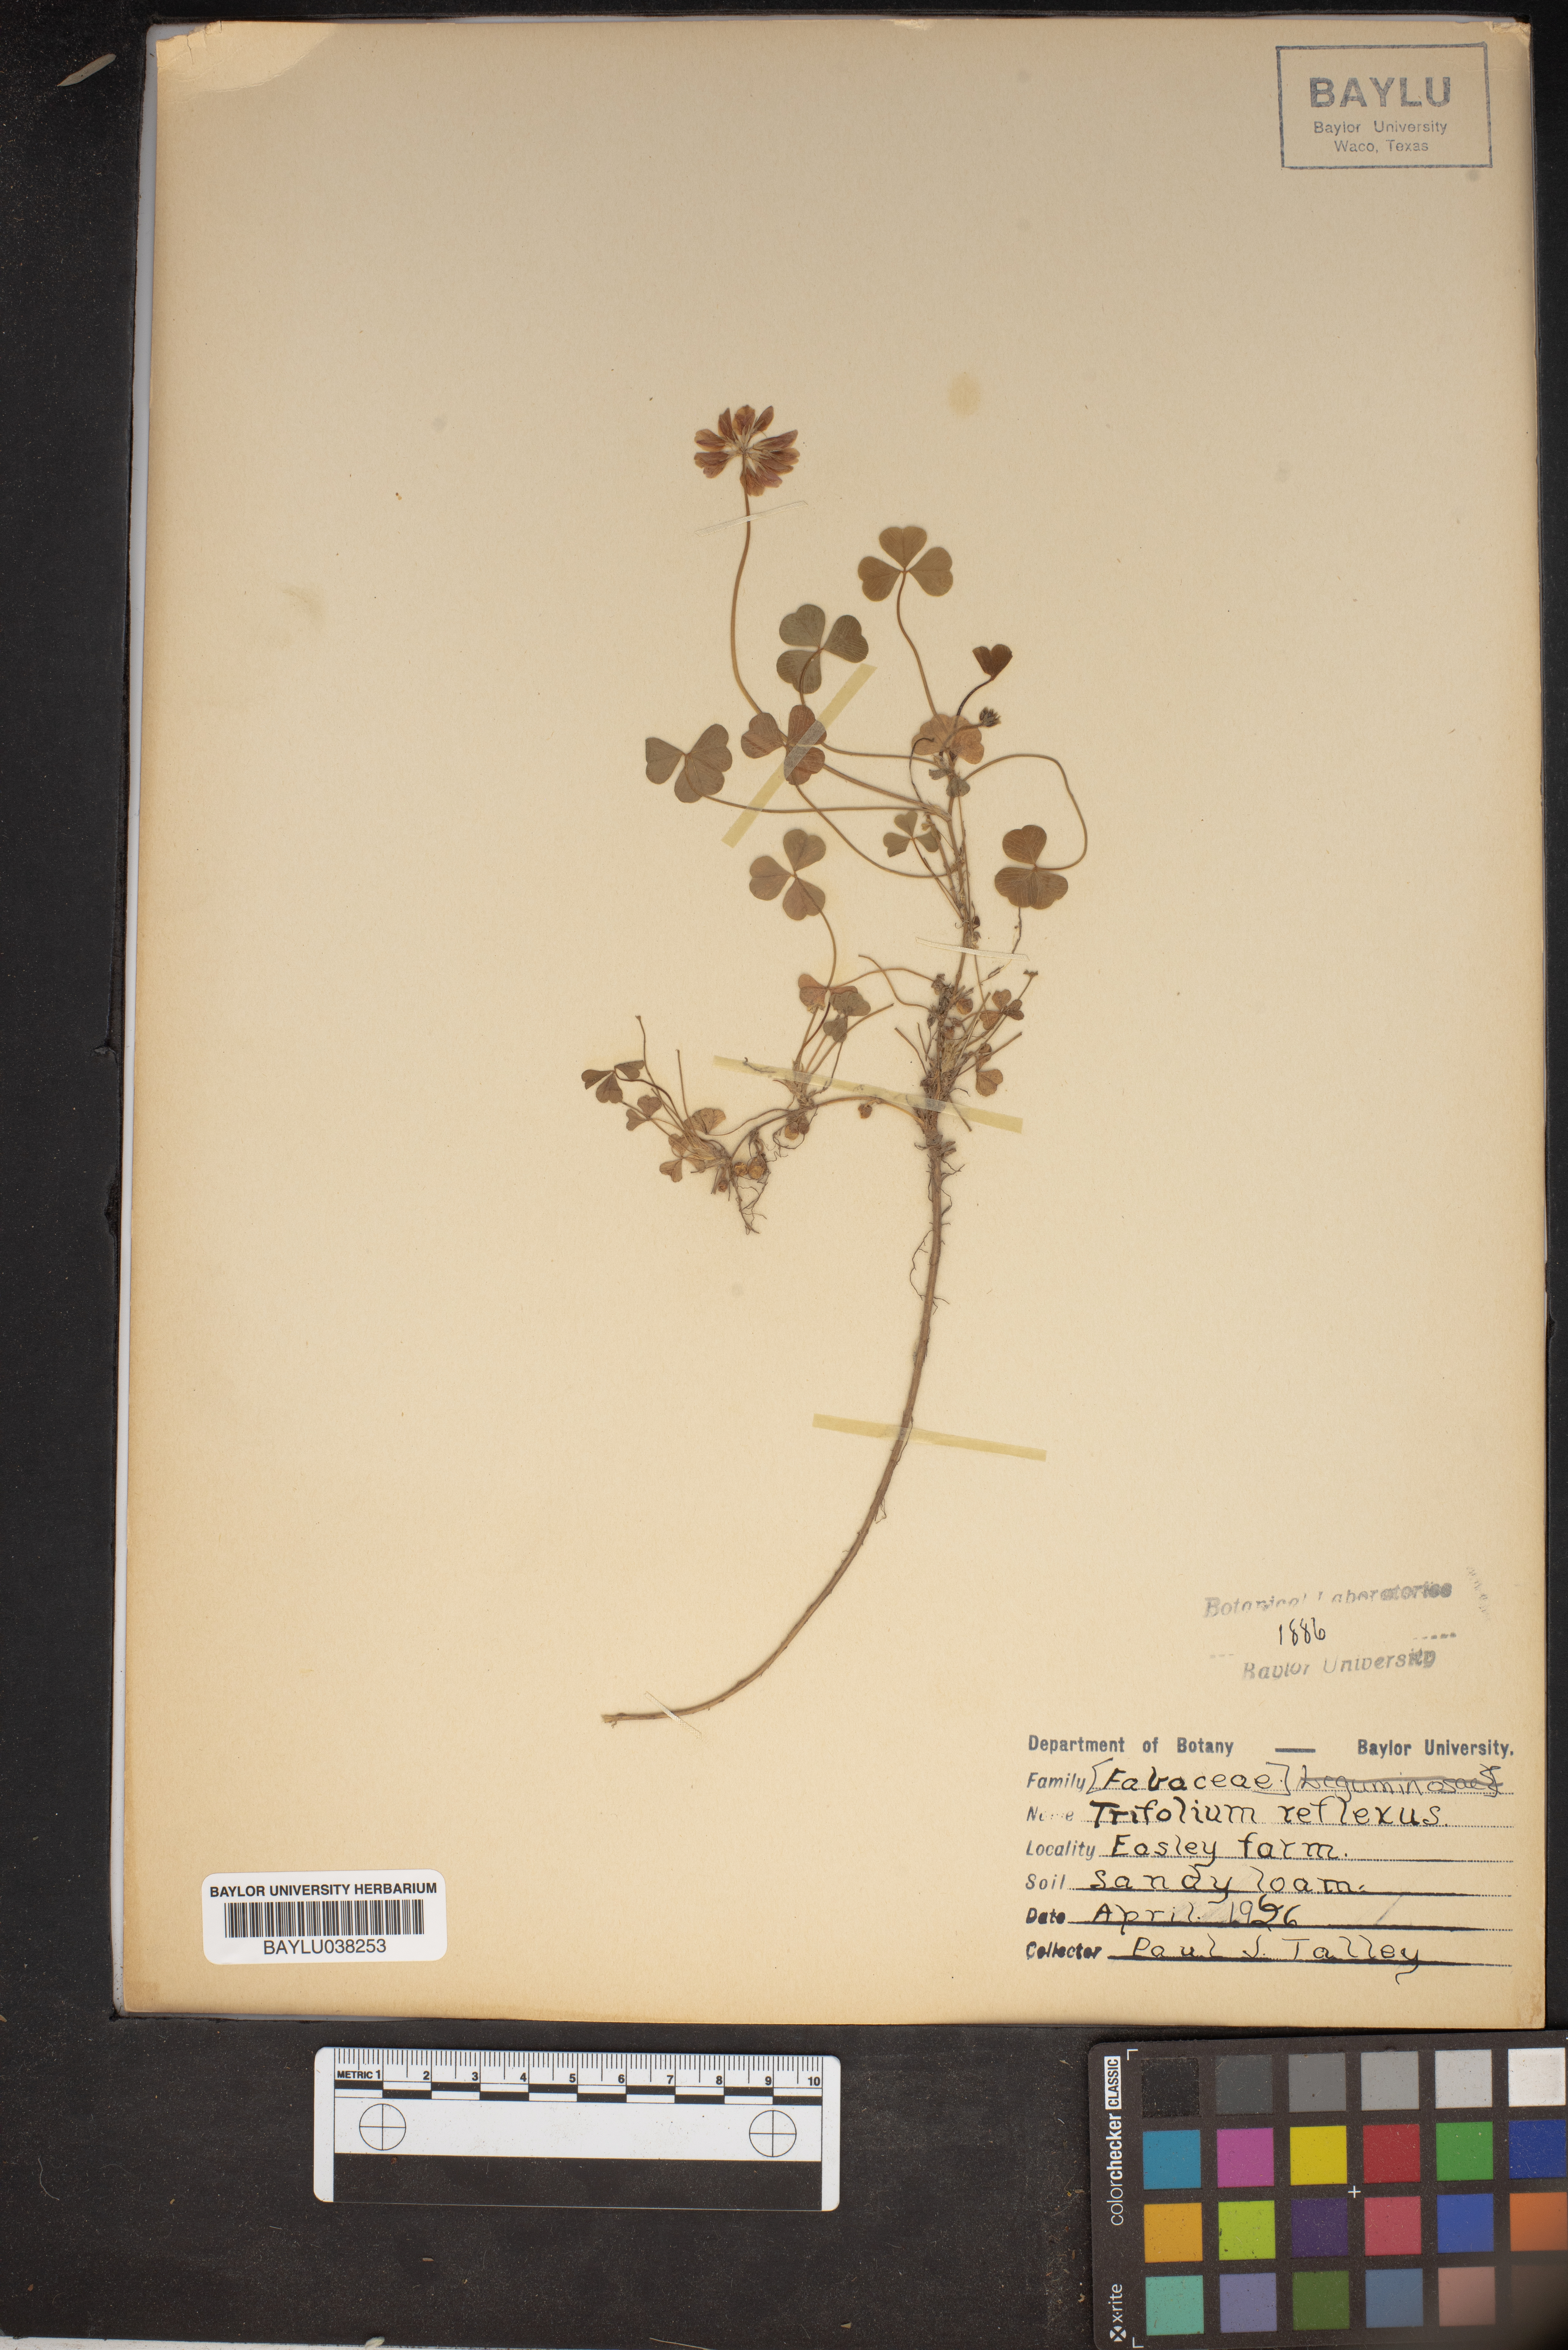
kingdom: Plantae
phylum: Tracheophyta
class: Magnoliopsida
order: Fabales
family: Fabaceae
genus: Trifolium
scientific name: Trifolium reflexum
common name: Buffalo clover
